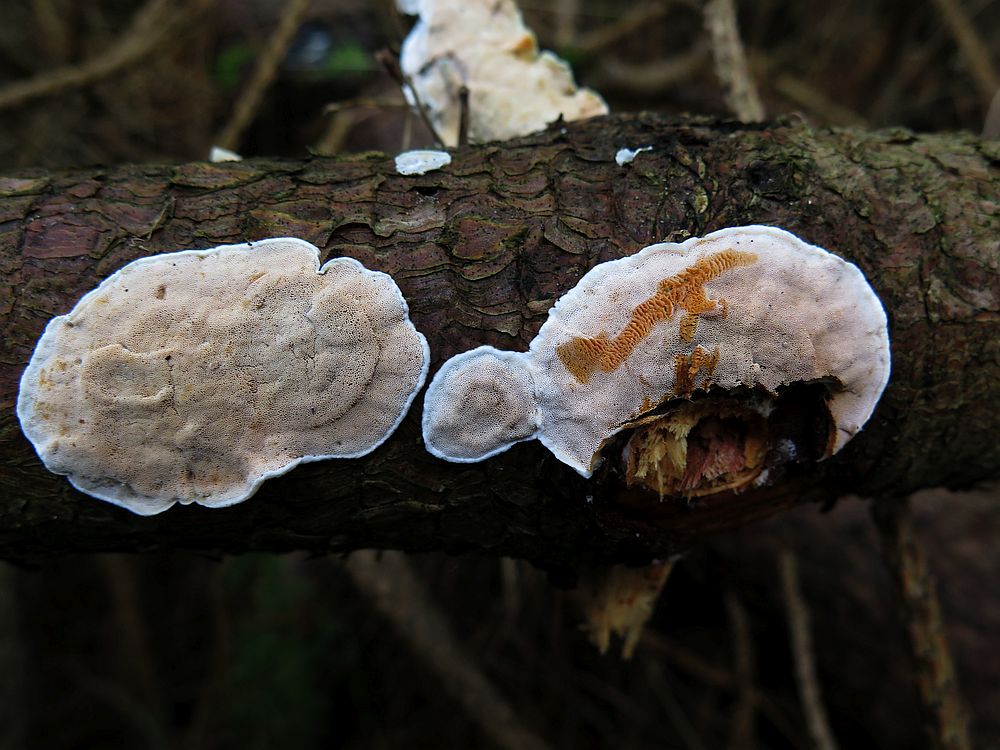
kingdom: Fungi
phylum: Basidiomycota
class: Agaricomycetes
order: Polyporales
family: Incrustoporiaceae
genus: Skeletocutis
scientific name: Skeletocutis amorpha
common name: orange krystalporesvamp
